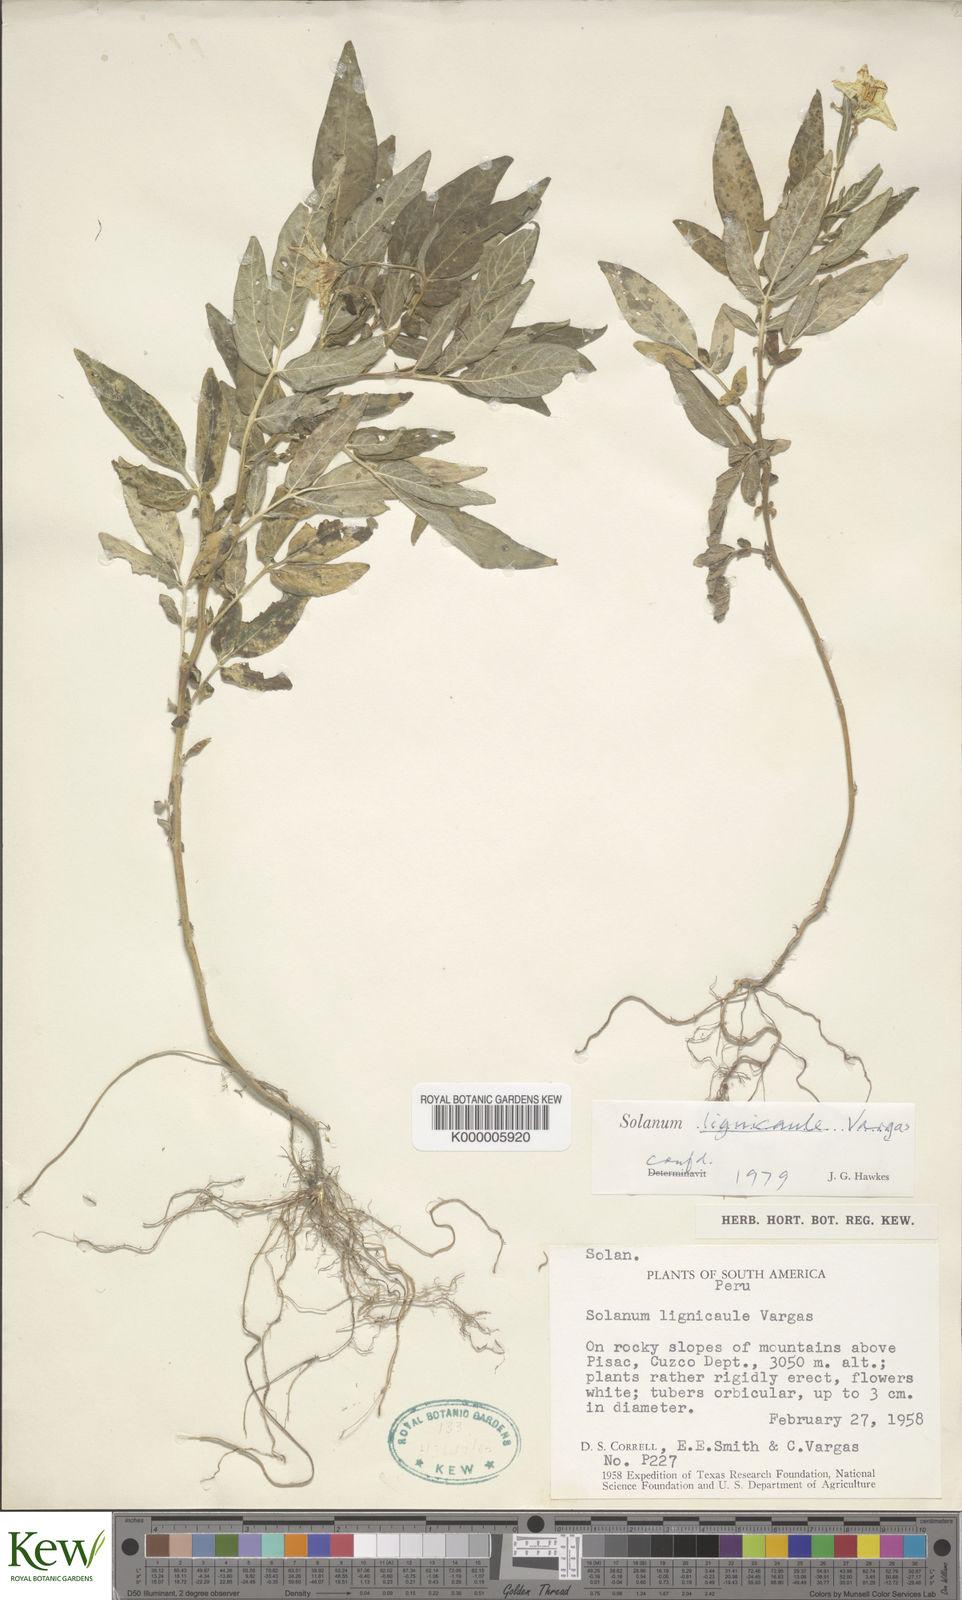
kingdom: Plantae
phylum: Tracheophyta
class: Magnoliopsida
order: Solanales
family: Solanaceae
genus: Solanum
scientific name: Solanum lignicaule
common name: Fox potato
